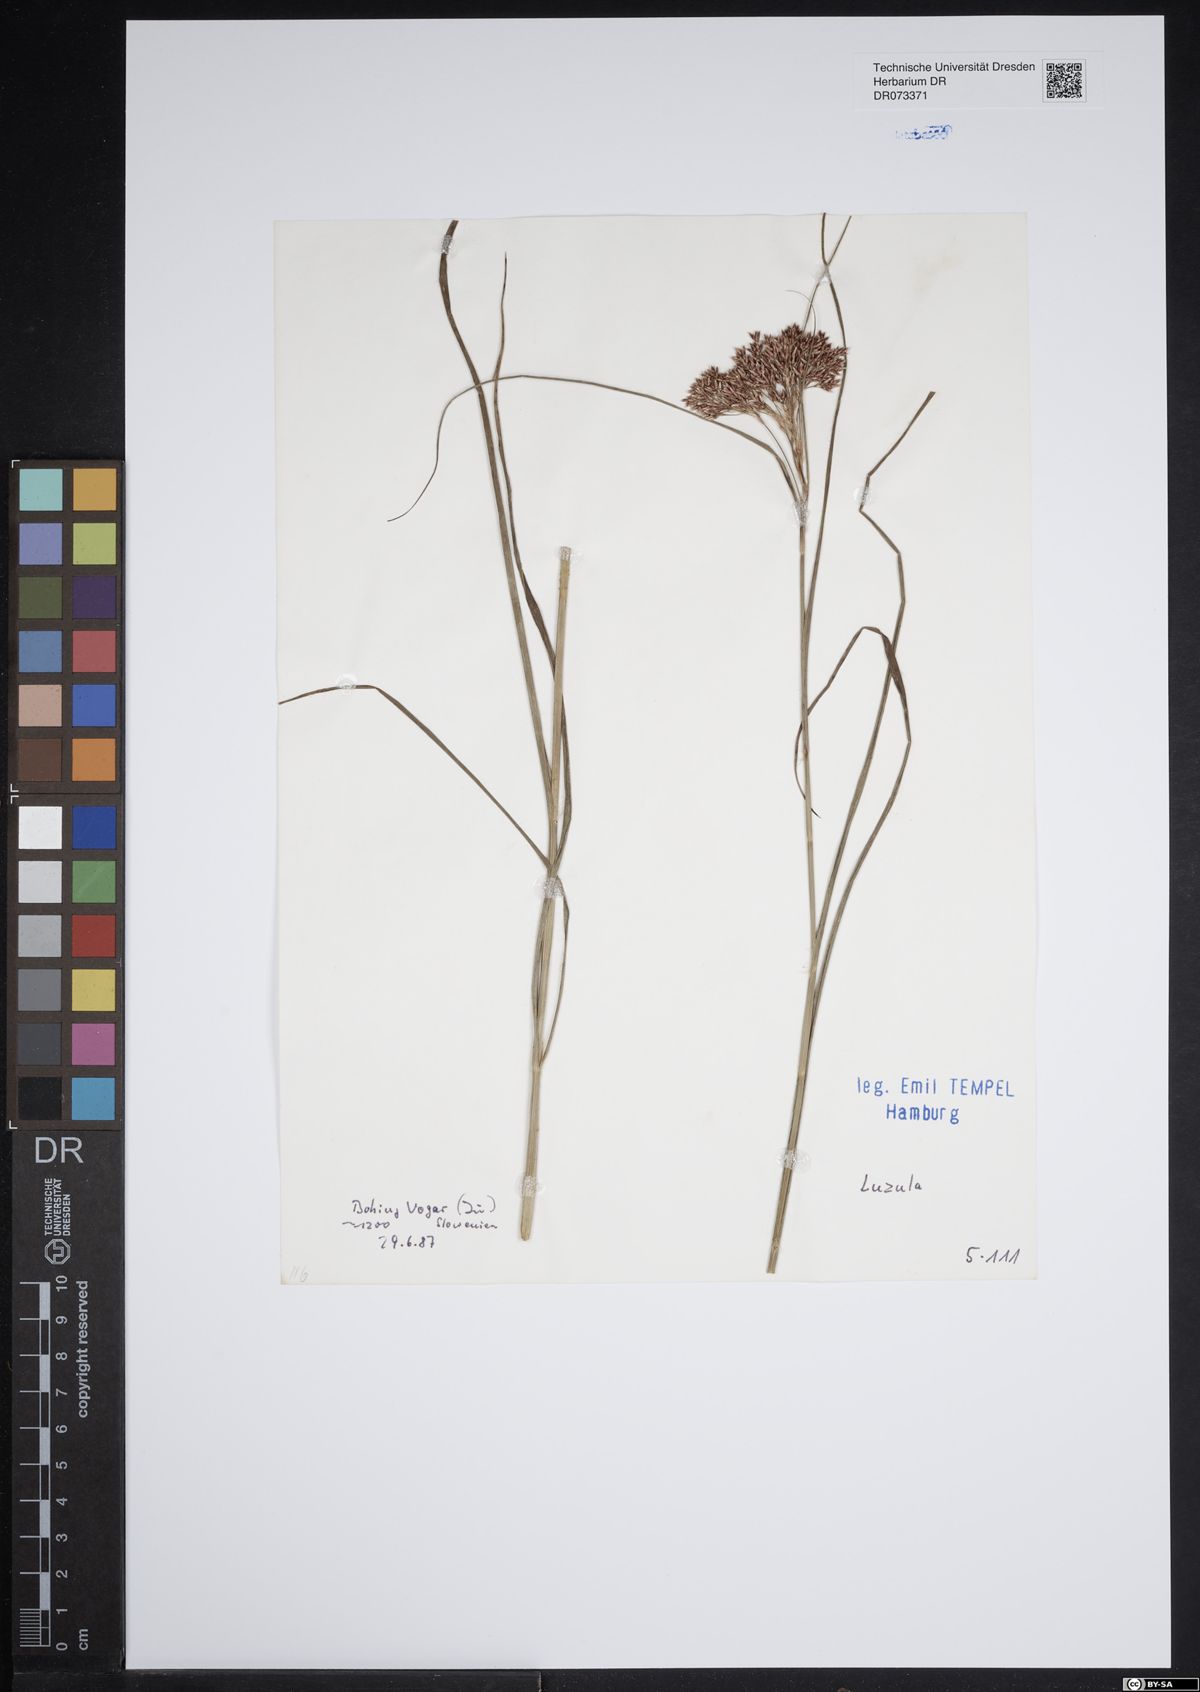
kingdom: Plantae
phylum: Tracheophyta
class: Liliopsida
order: Poales
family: Juncaceae
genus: Luzula
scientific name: Luzula
